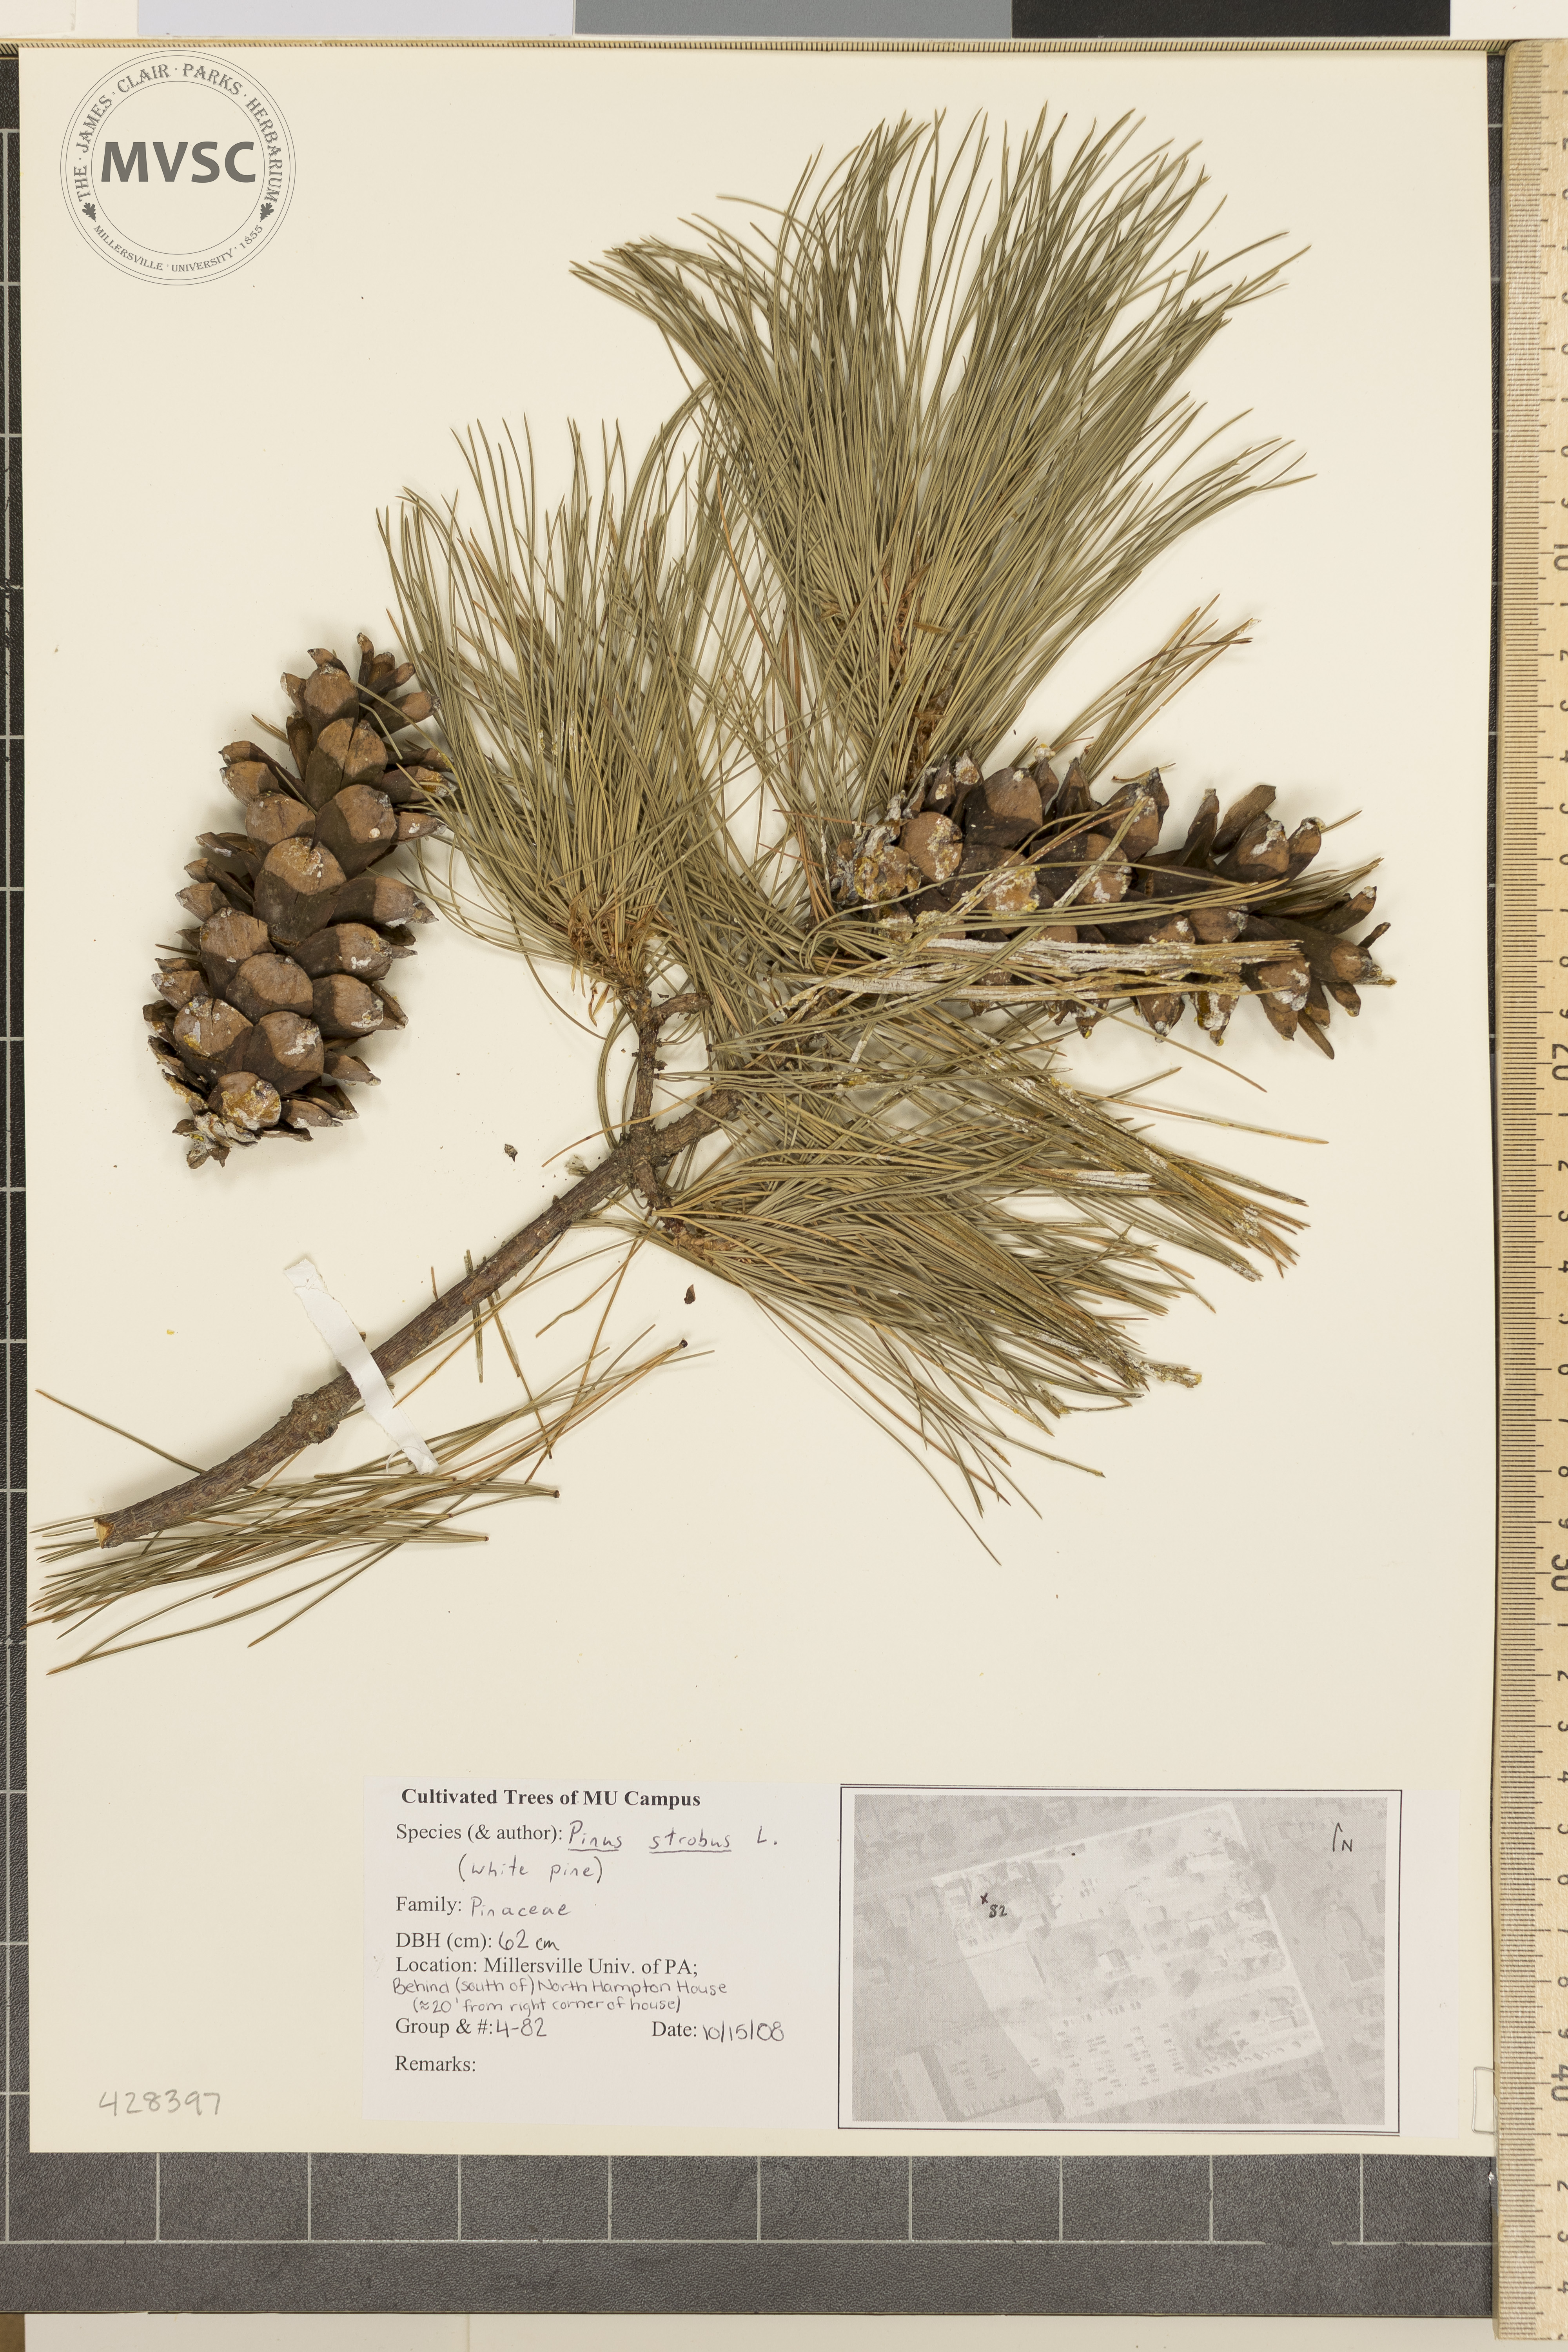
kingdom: Plantae
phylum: Tracheophyta
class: Pinopsida
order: Pinales
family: Pinaceae
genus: Pinus
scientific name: Pinus strobus
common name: White Pine
